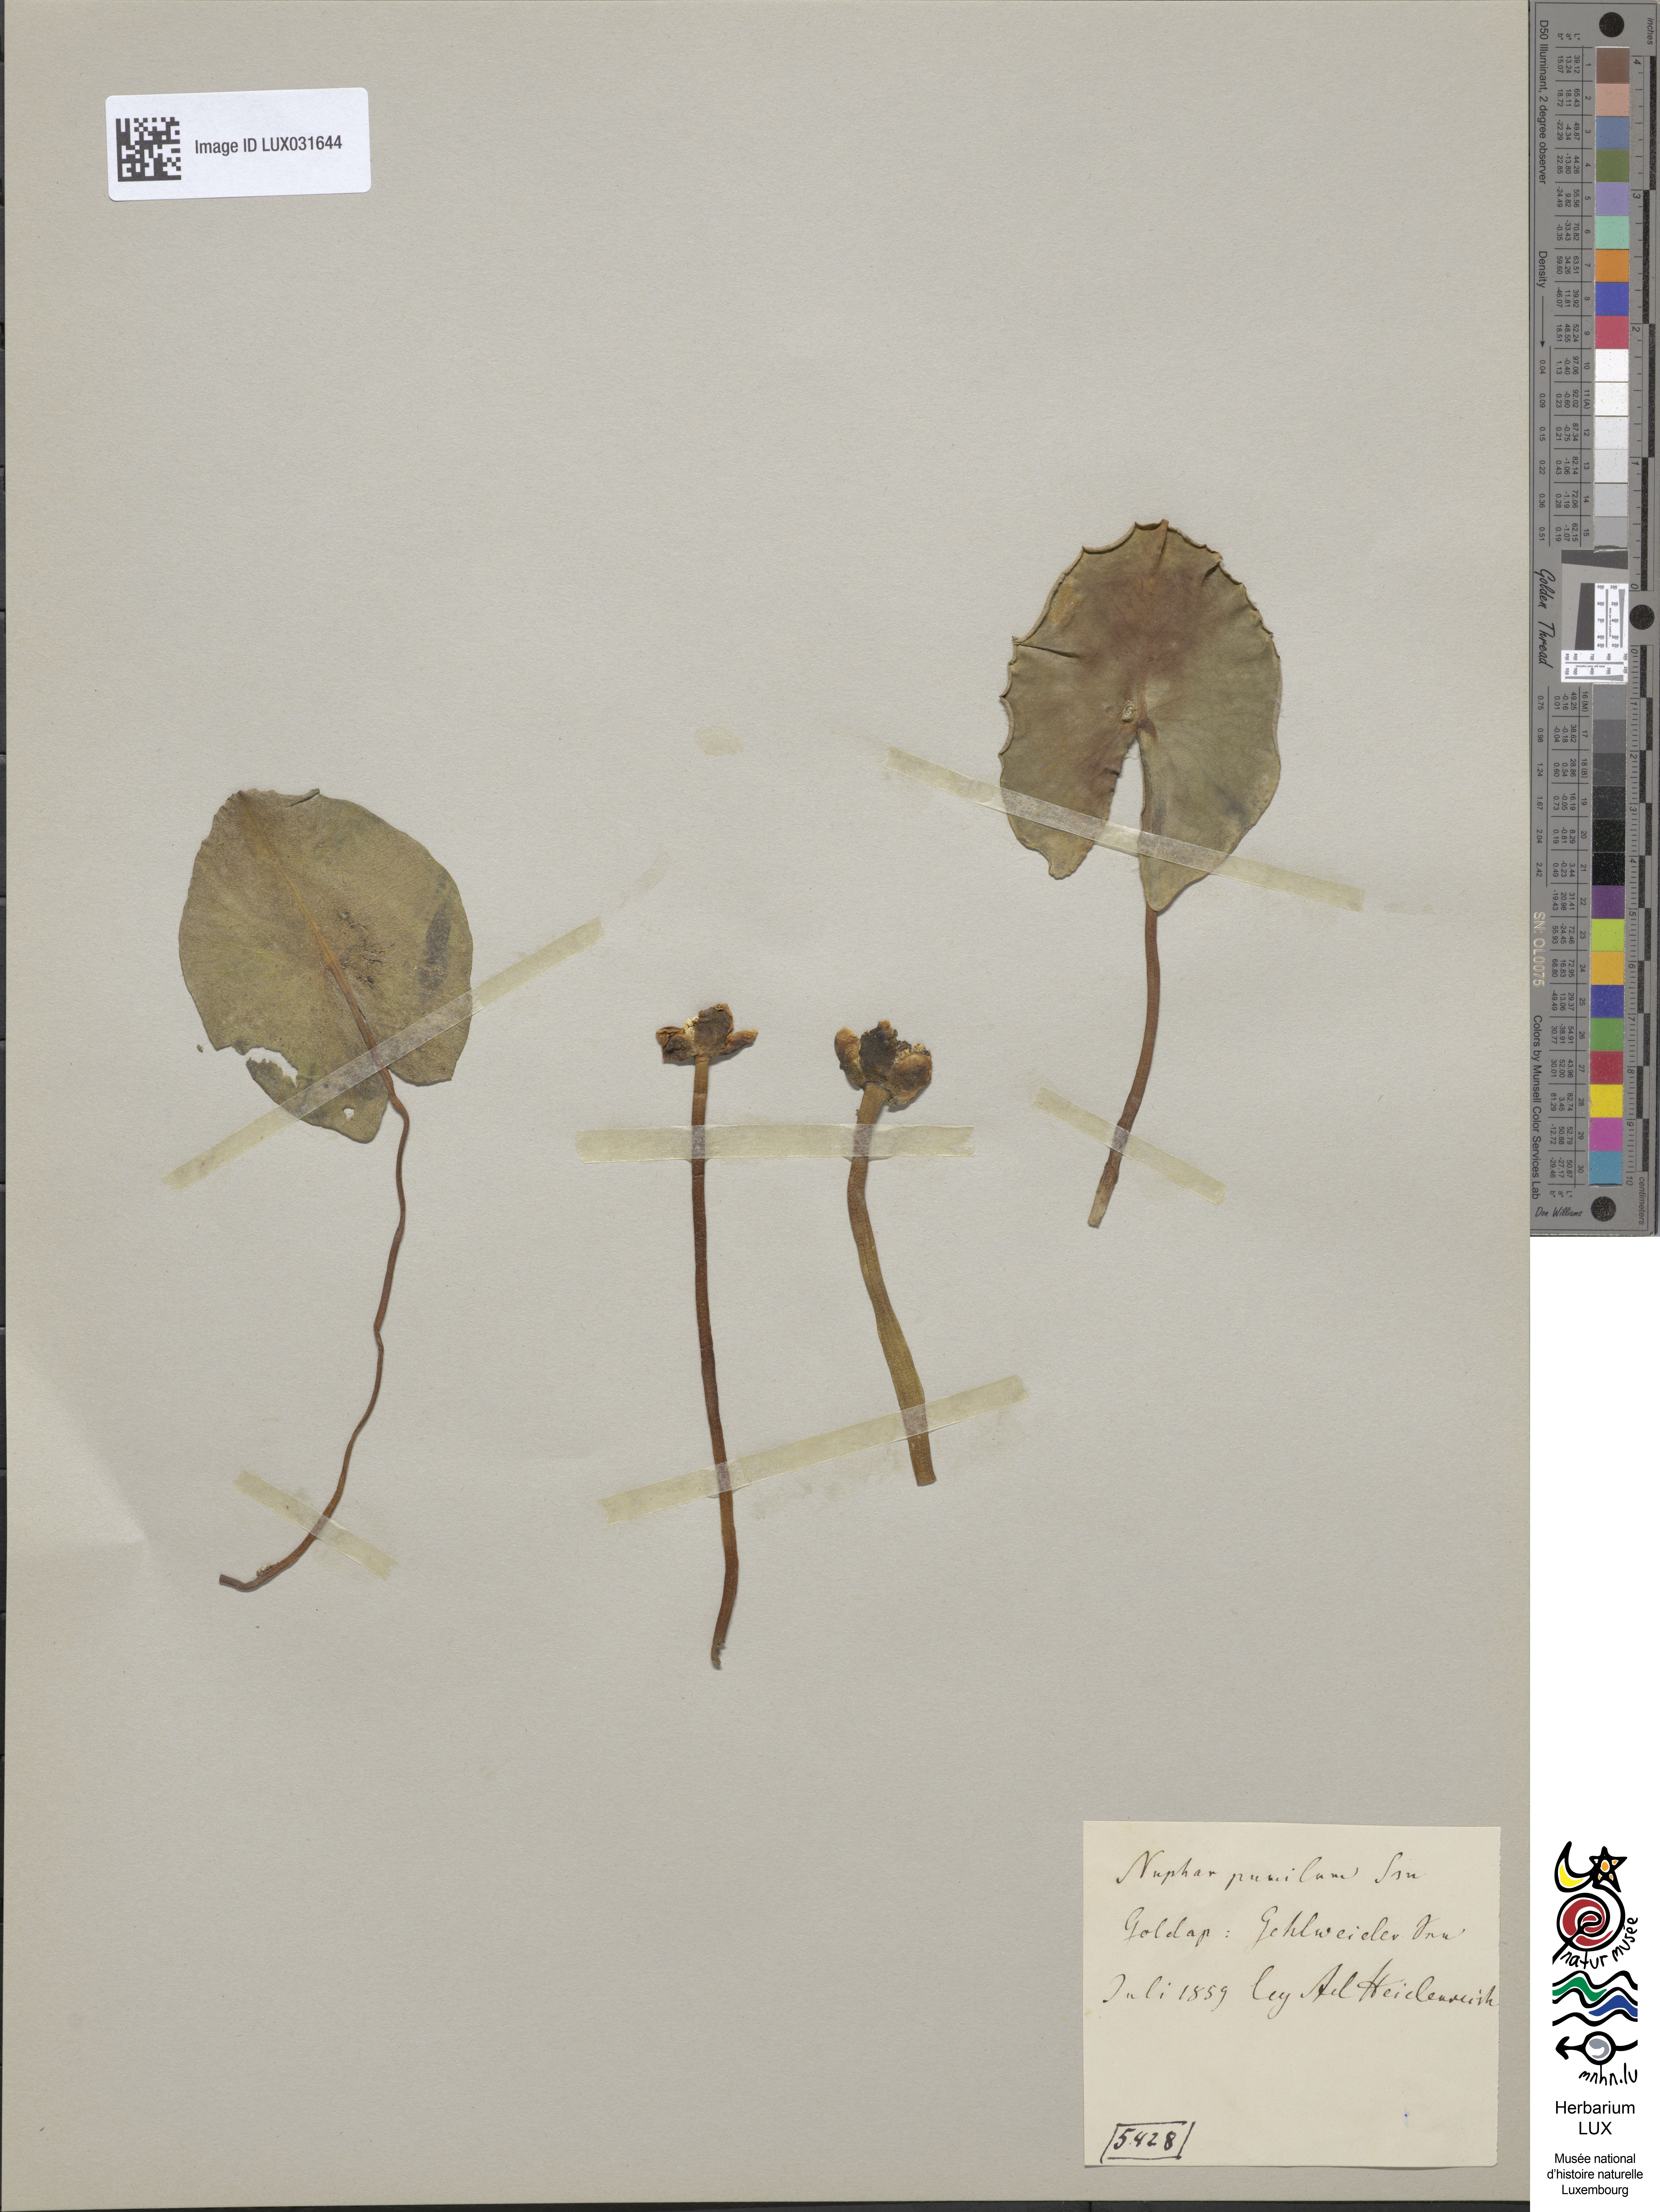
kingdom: Plantae
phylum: Tracheophyta
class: Magnoliopsida
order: Nymphaeales
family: Nymphaeaceae
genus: Nuphar
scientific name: Nuphar pumila
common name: Least water-lily
